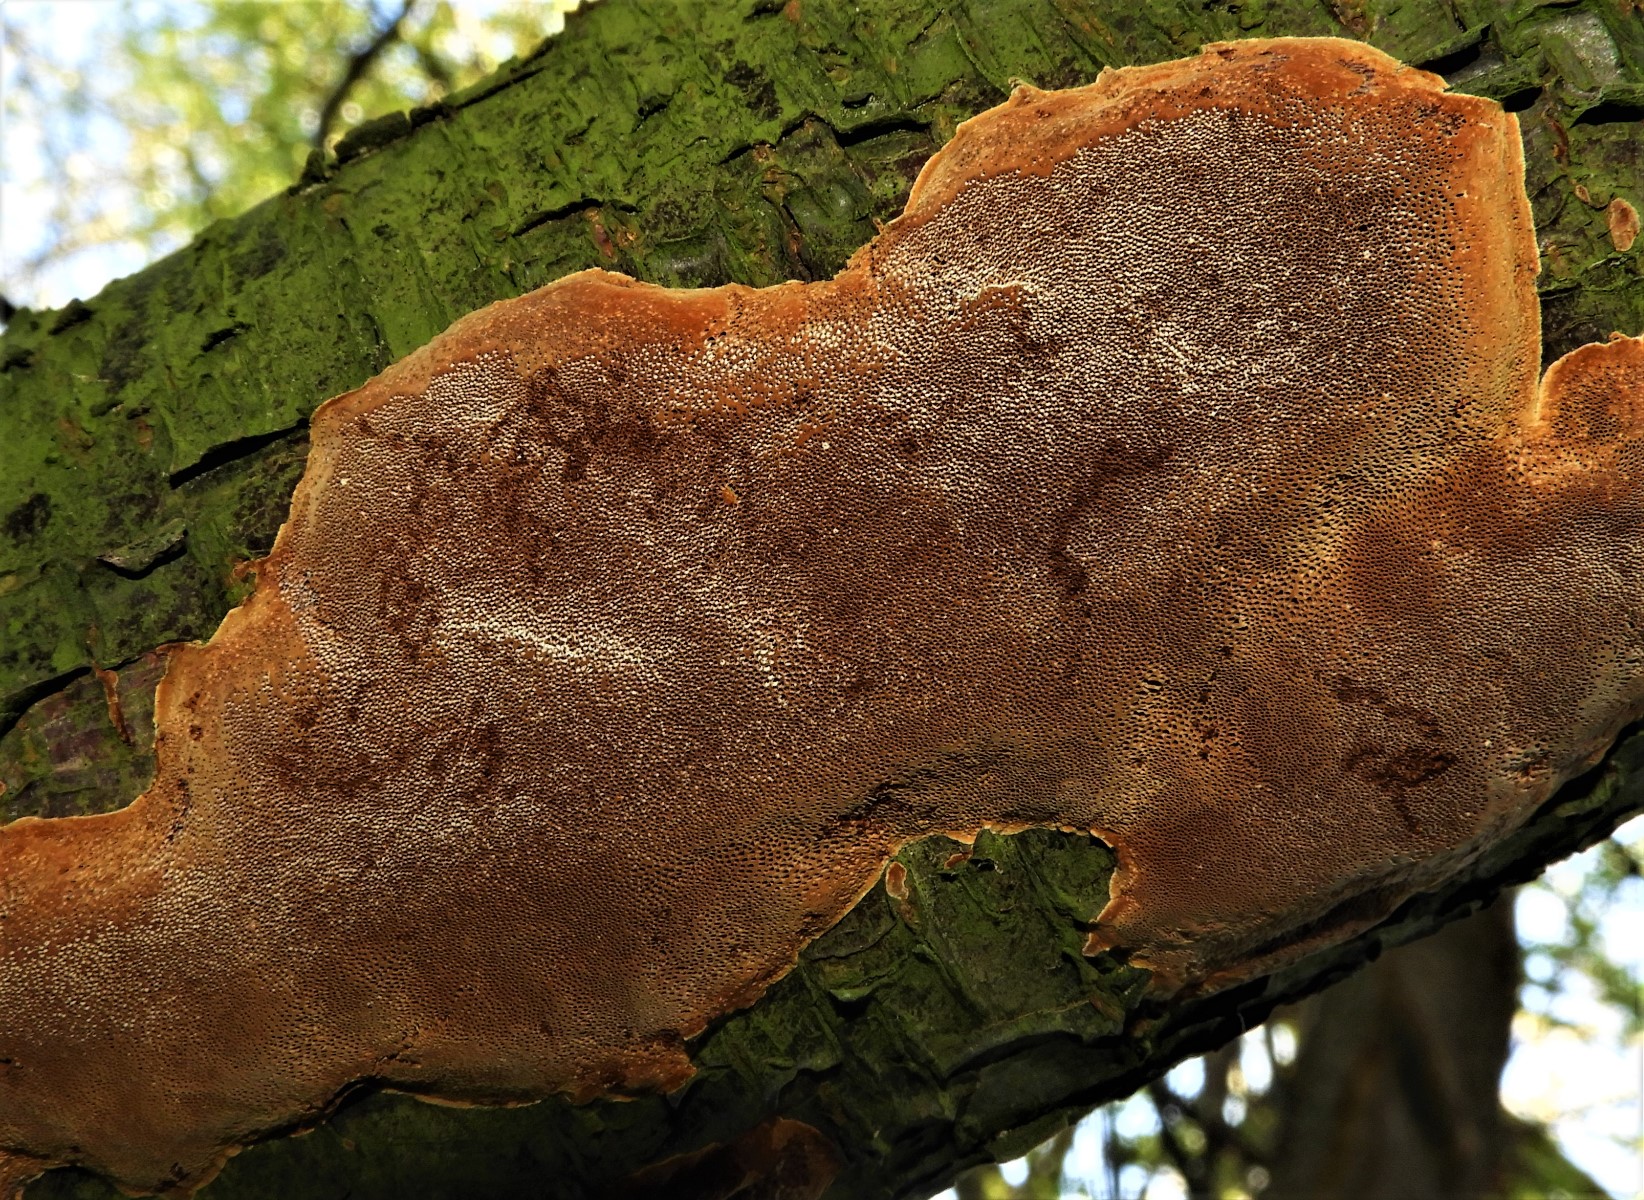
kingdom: Fungi
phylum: Basidiomycota
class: Agaricomycetes
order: Hymenochaetales
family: Hymenochaetaceae
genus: Fuscoporia
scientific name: Fuscoporia ferrea
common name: skorpe-ildporesvamp
